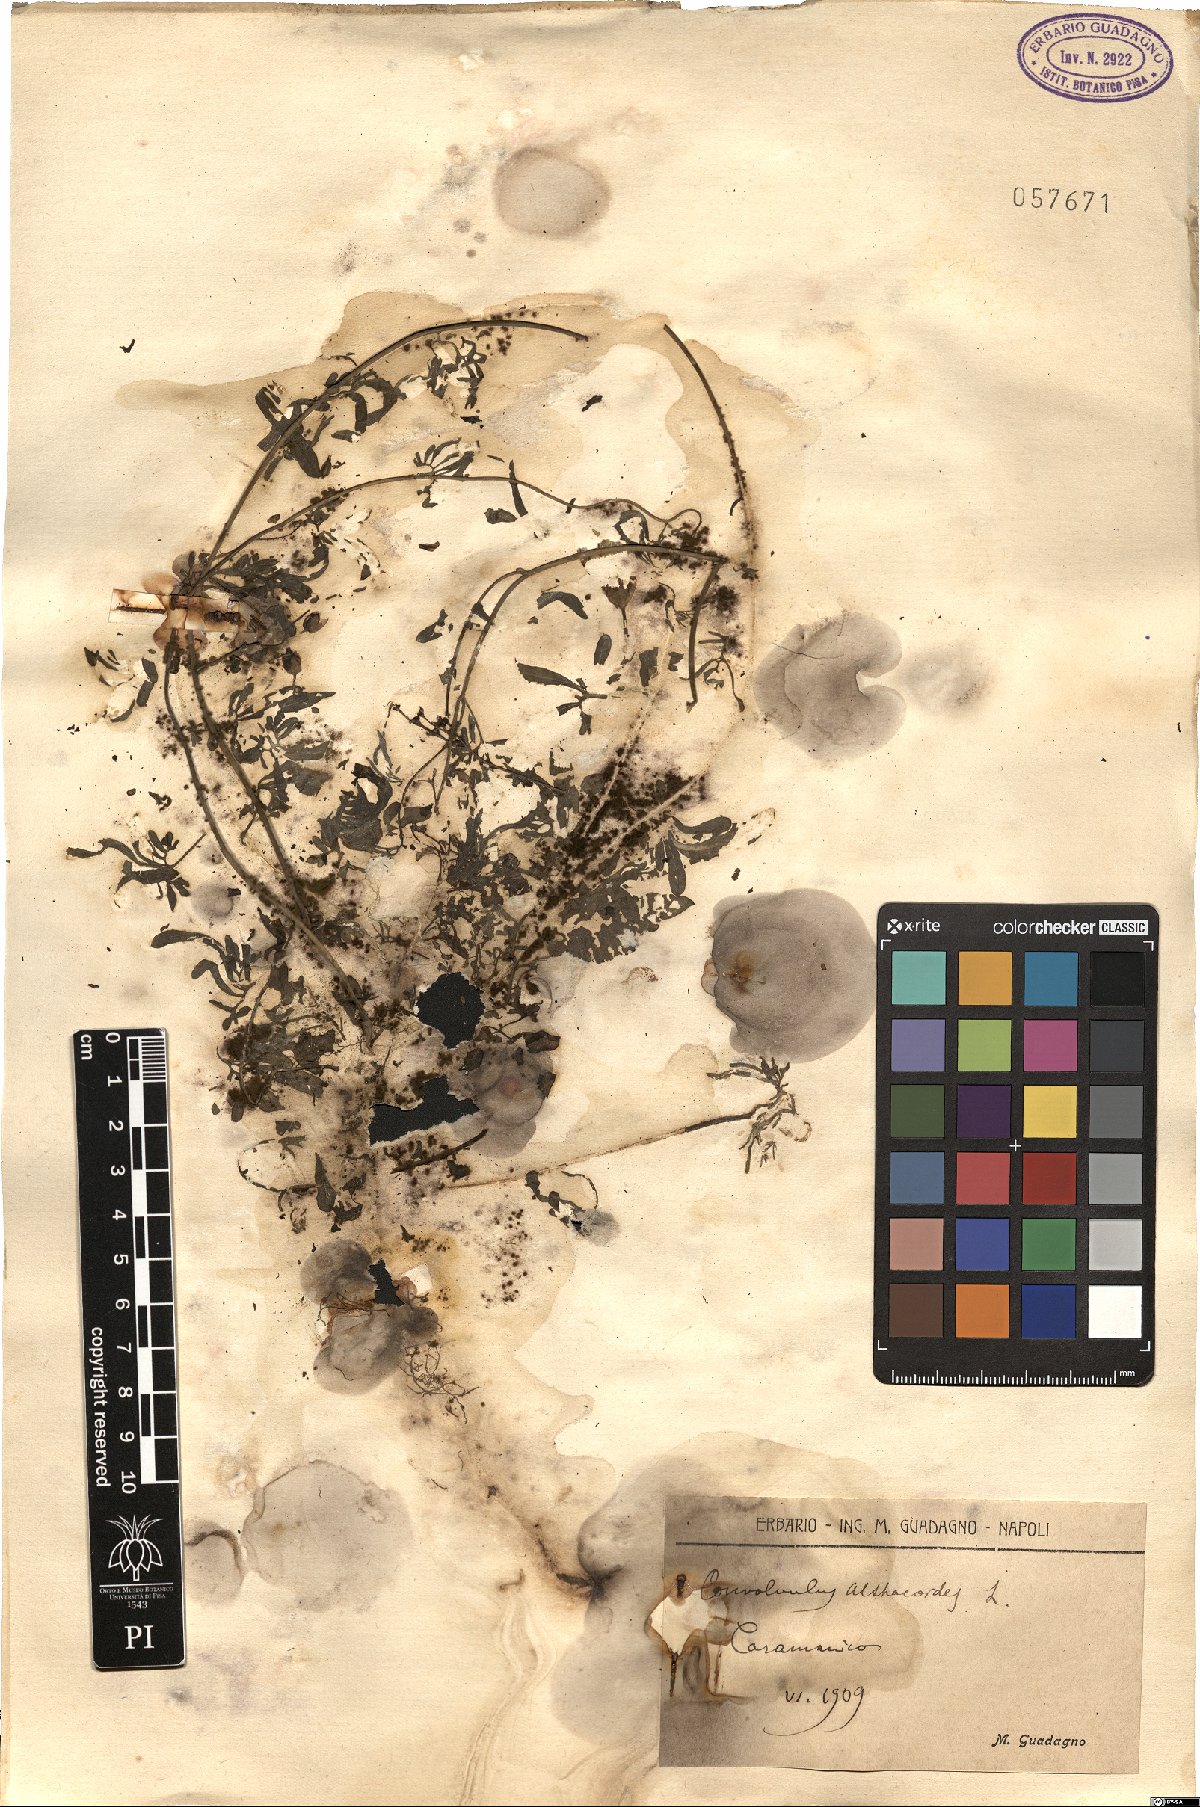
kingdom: Plantae
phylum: Tracheophyta
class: Magnoliopsida
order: Solanales
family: Convolvulaceae
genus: Convolvulus
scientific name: Convolvulus althaeoides
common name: Mallow bindweed
